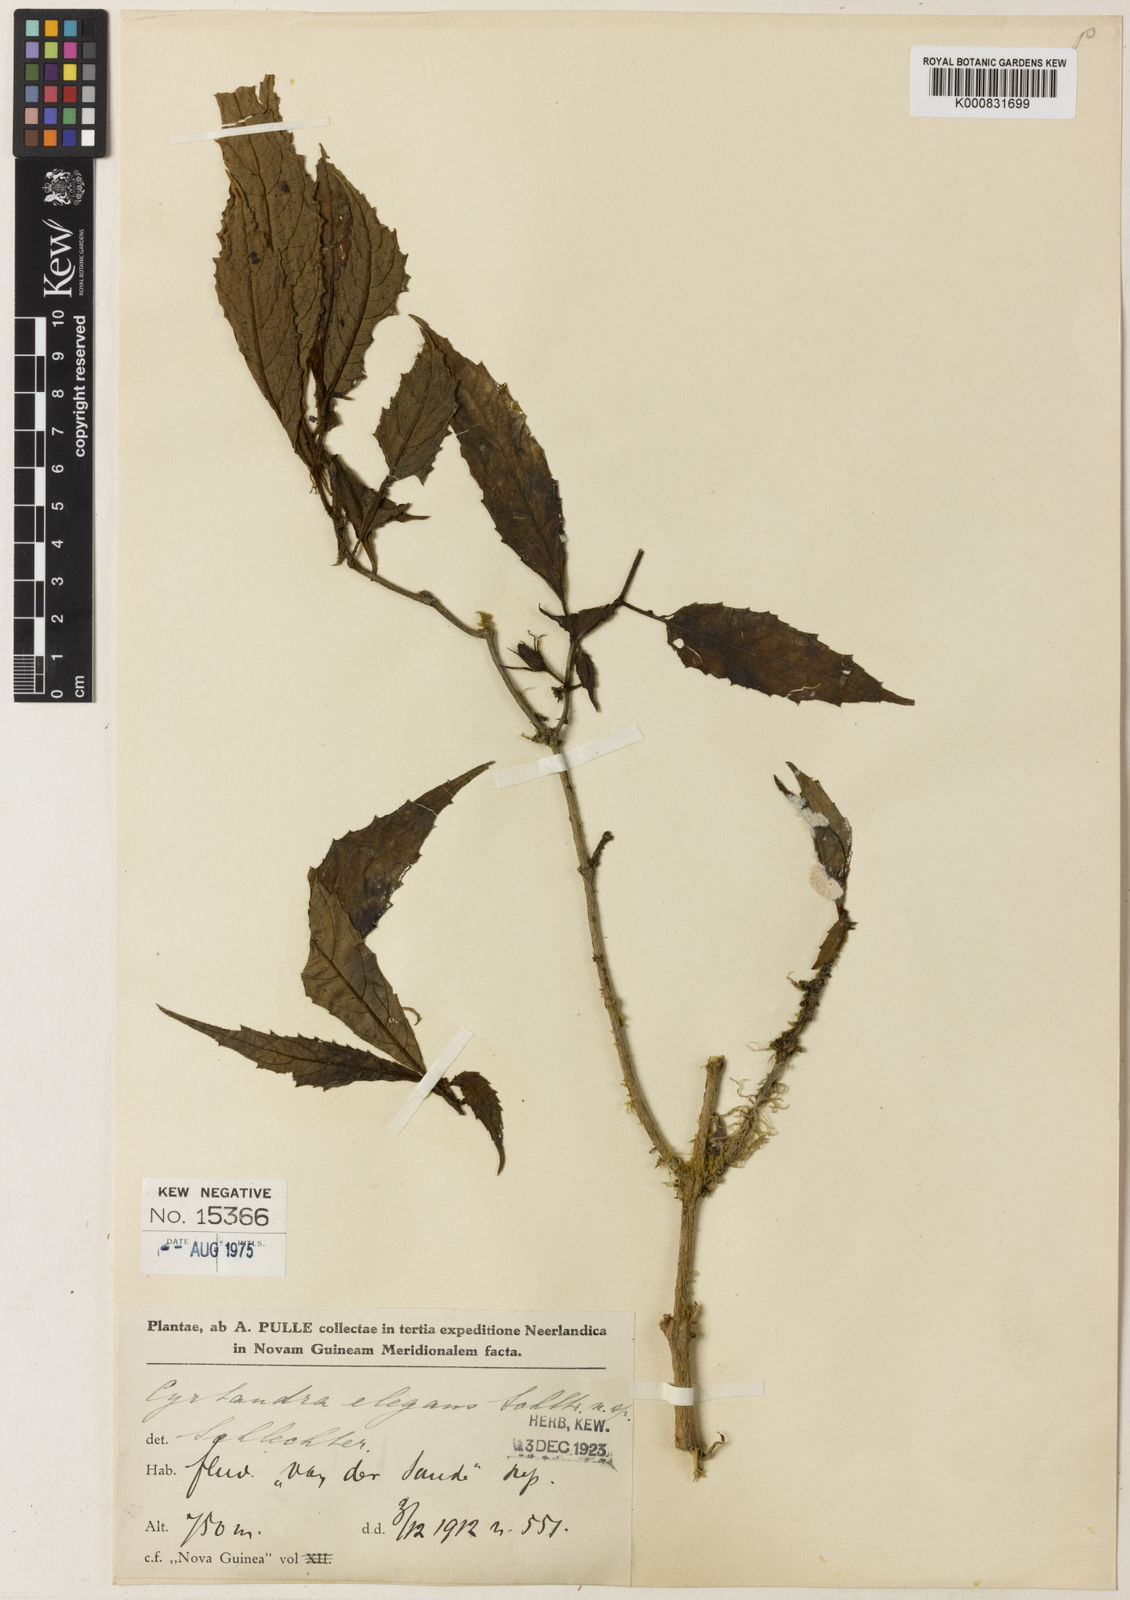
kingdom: Plantae
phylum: Tracheophyta
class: Magnoliopsida
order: Lamiales
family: Gesneriaceae
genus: Cyrtandra
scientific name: Cyrtandra elegans
